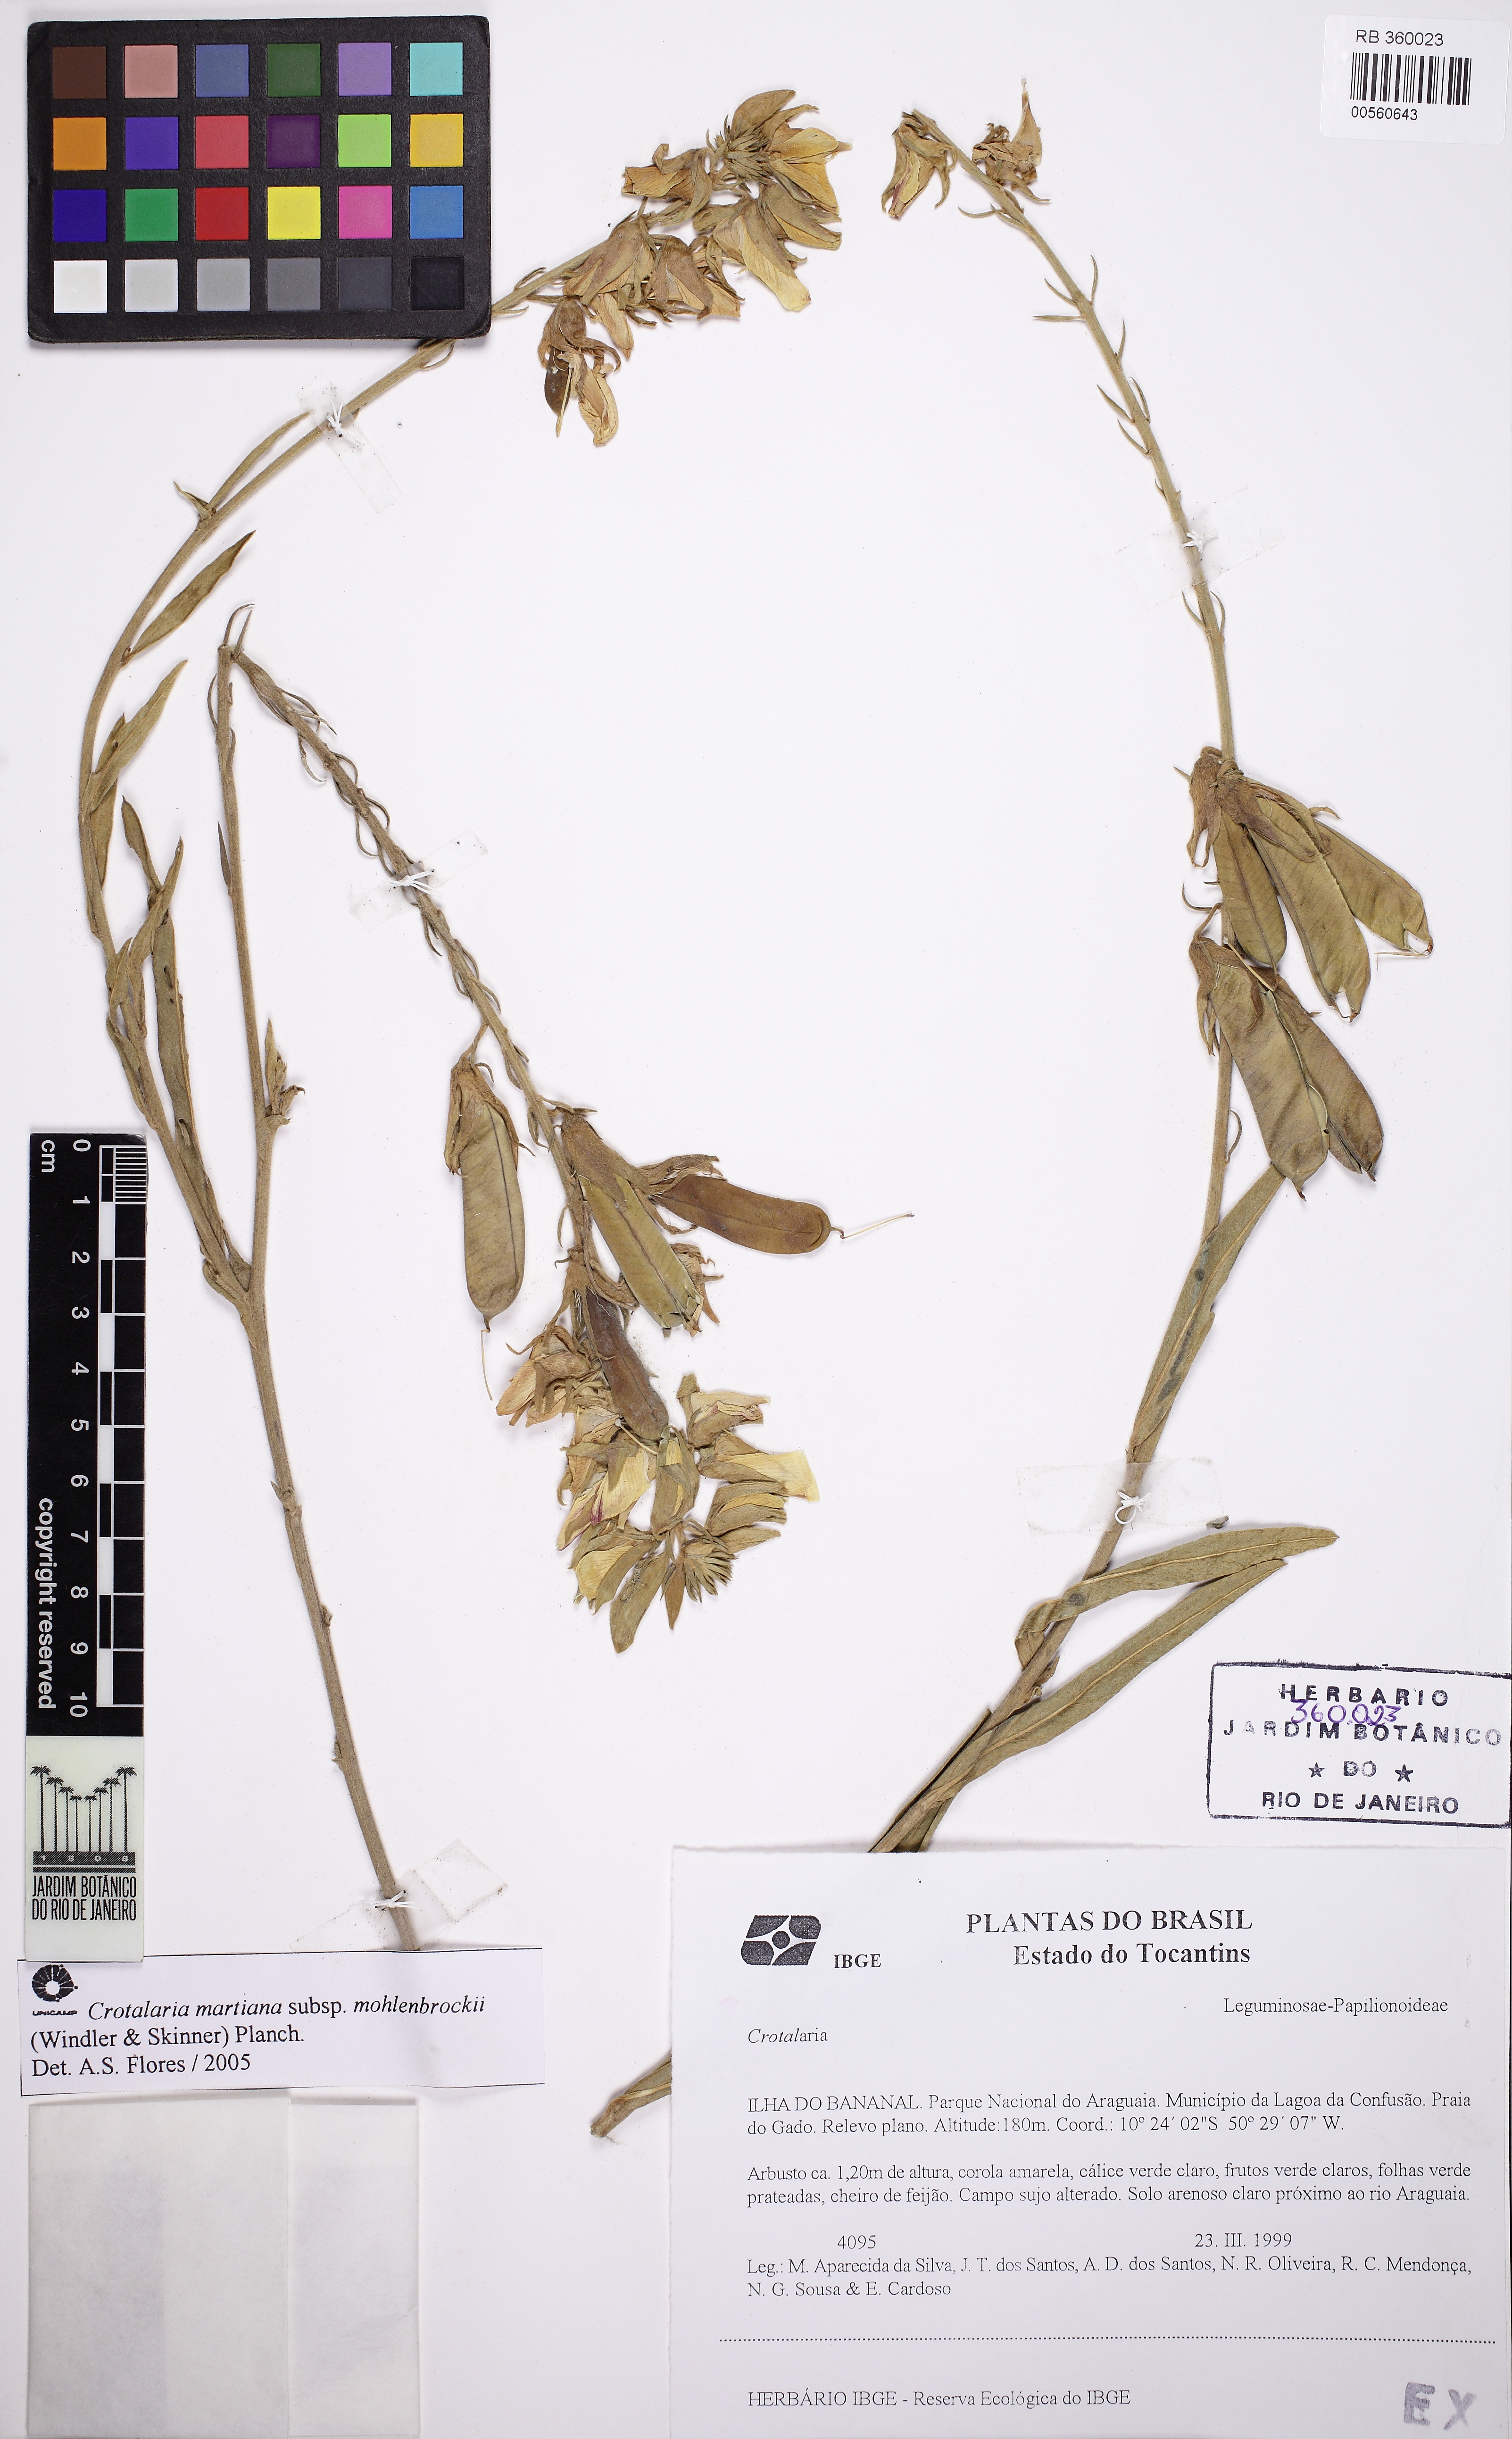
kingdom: Plantae
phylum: Tracheophyta
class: Magnoliopsida
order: Fabales
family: Fabaceae
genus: Crotalaria
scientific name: Crotalaria martiana
